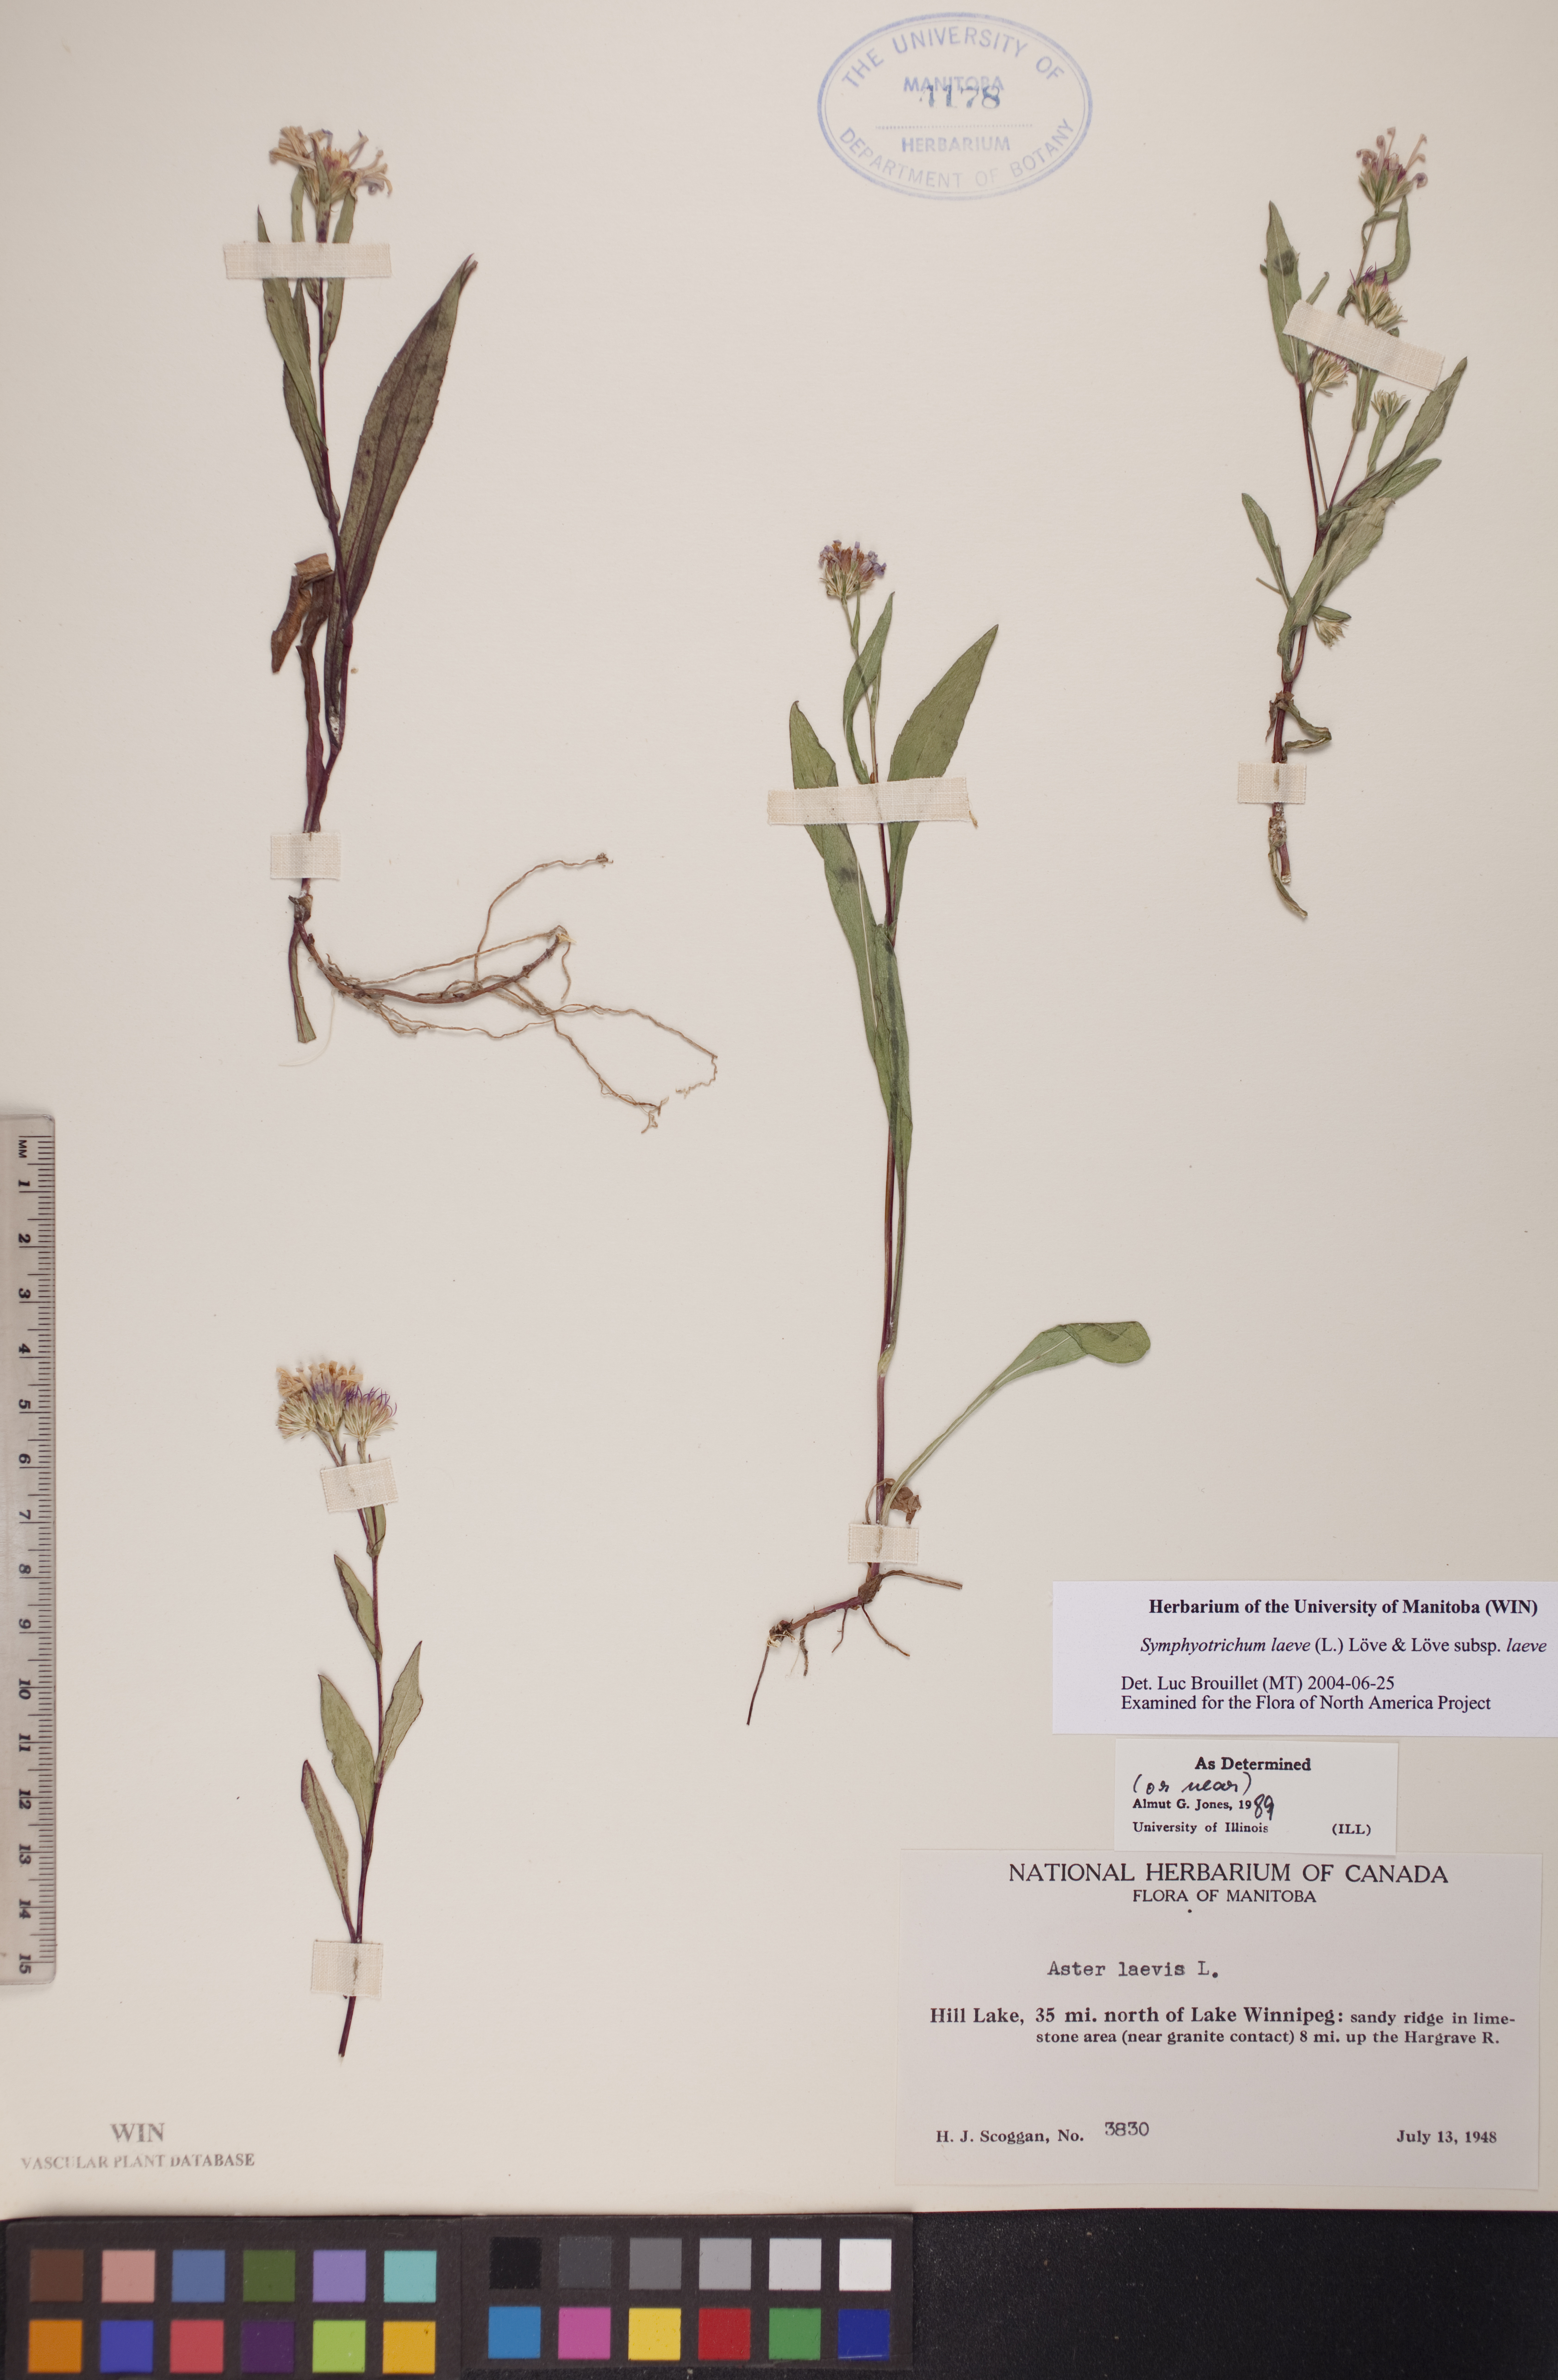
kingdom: Plantae
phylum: Tracheophyta
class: Magnoliopsida
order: Asterales
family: Asteraceae
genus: Symphyotrichum
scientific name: Symphyotrichum laeve
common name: Glaucous aster
